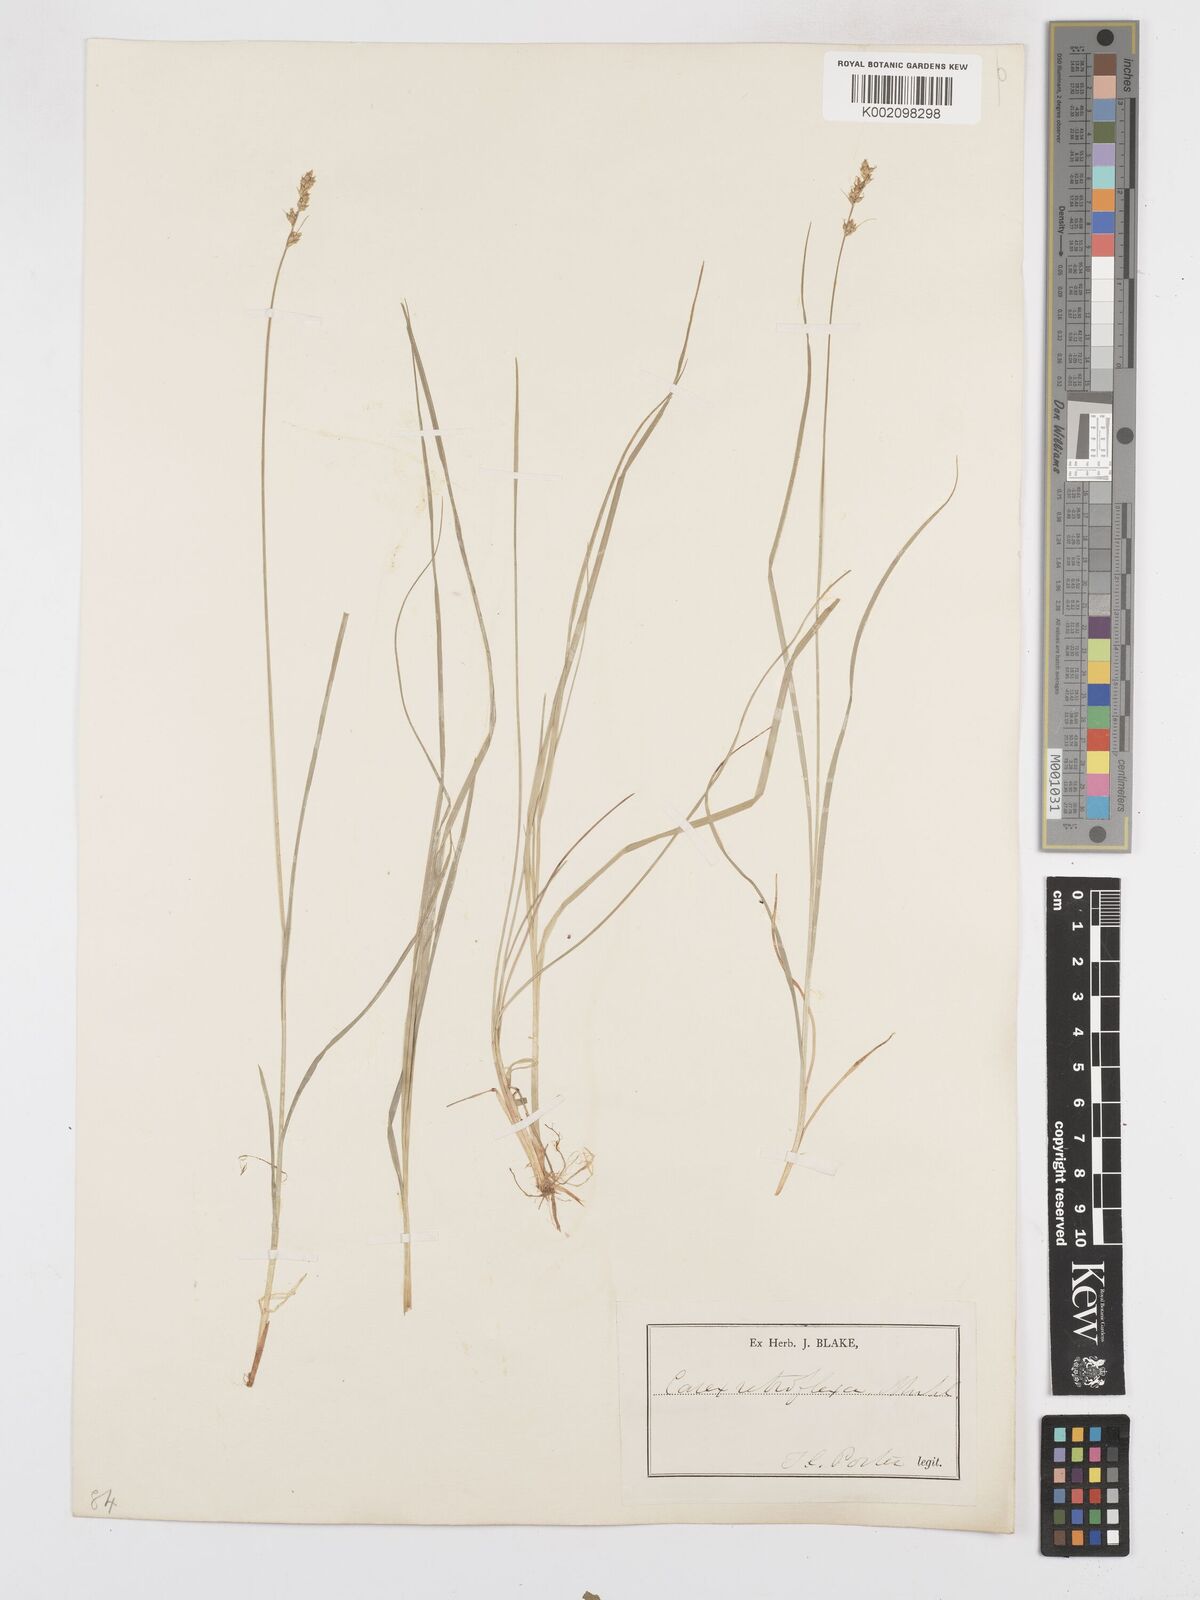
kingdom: Plantae
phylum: Tracheophyta
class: Liliopsida
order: Poales
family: Cyperaceae
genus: Carex
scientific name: Carex retroflexa
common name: Reflexed sedge
